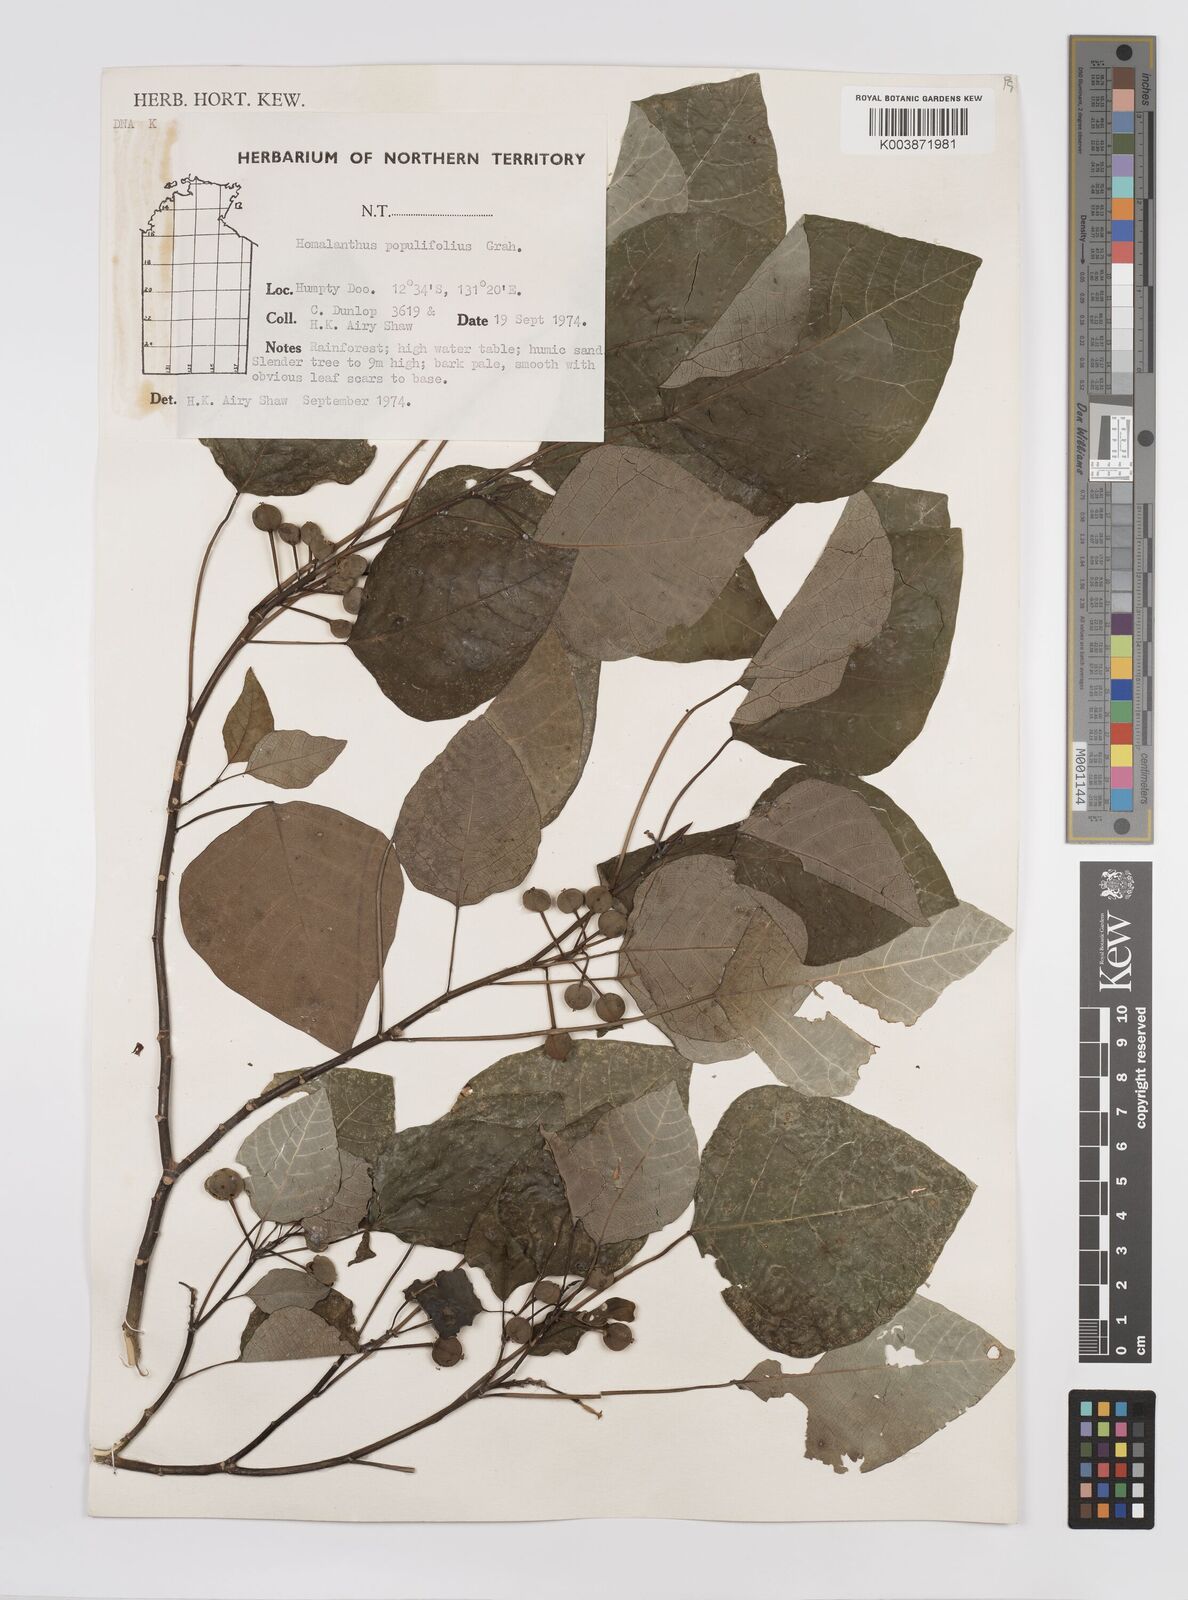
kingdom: Plantae
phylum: Tracheophyta
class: Magnoliopsida
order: Malpighiales
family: Euphorbiaceae
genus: Homalanthus
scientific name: Homalanthus novoguineensis
